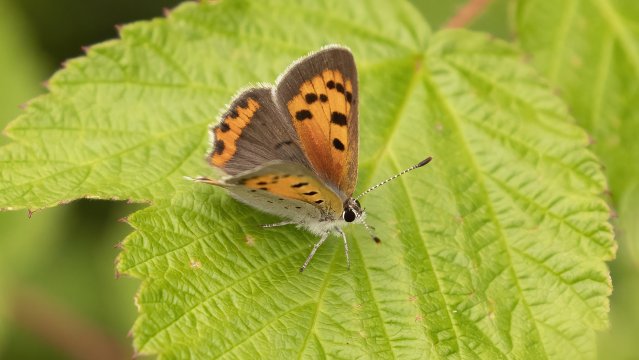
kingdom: Animalia
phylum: Arthropoda
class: Insecta
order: Lepidoptera
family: Lycaenidae
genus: Lycaena
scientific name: Lycaena phlaeas
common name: American Copper
